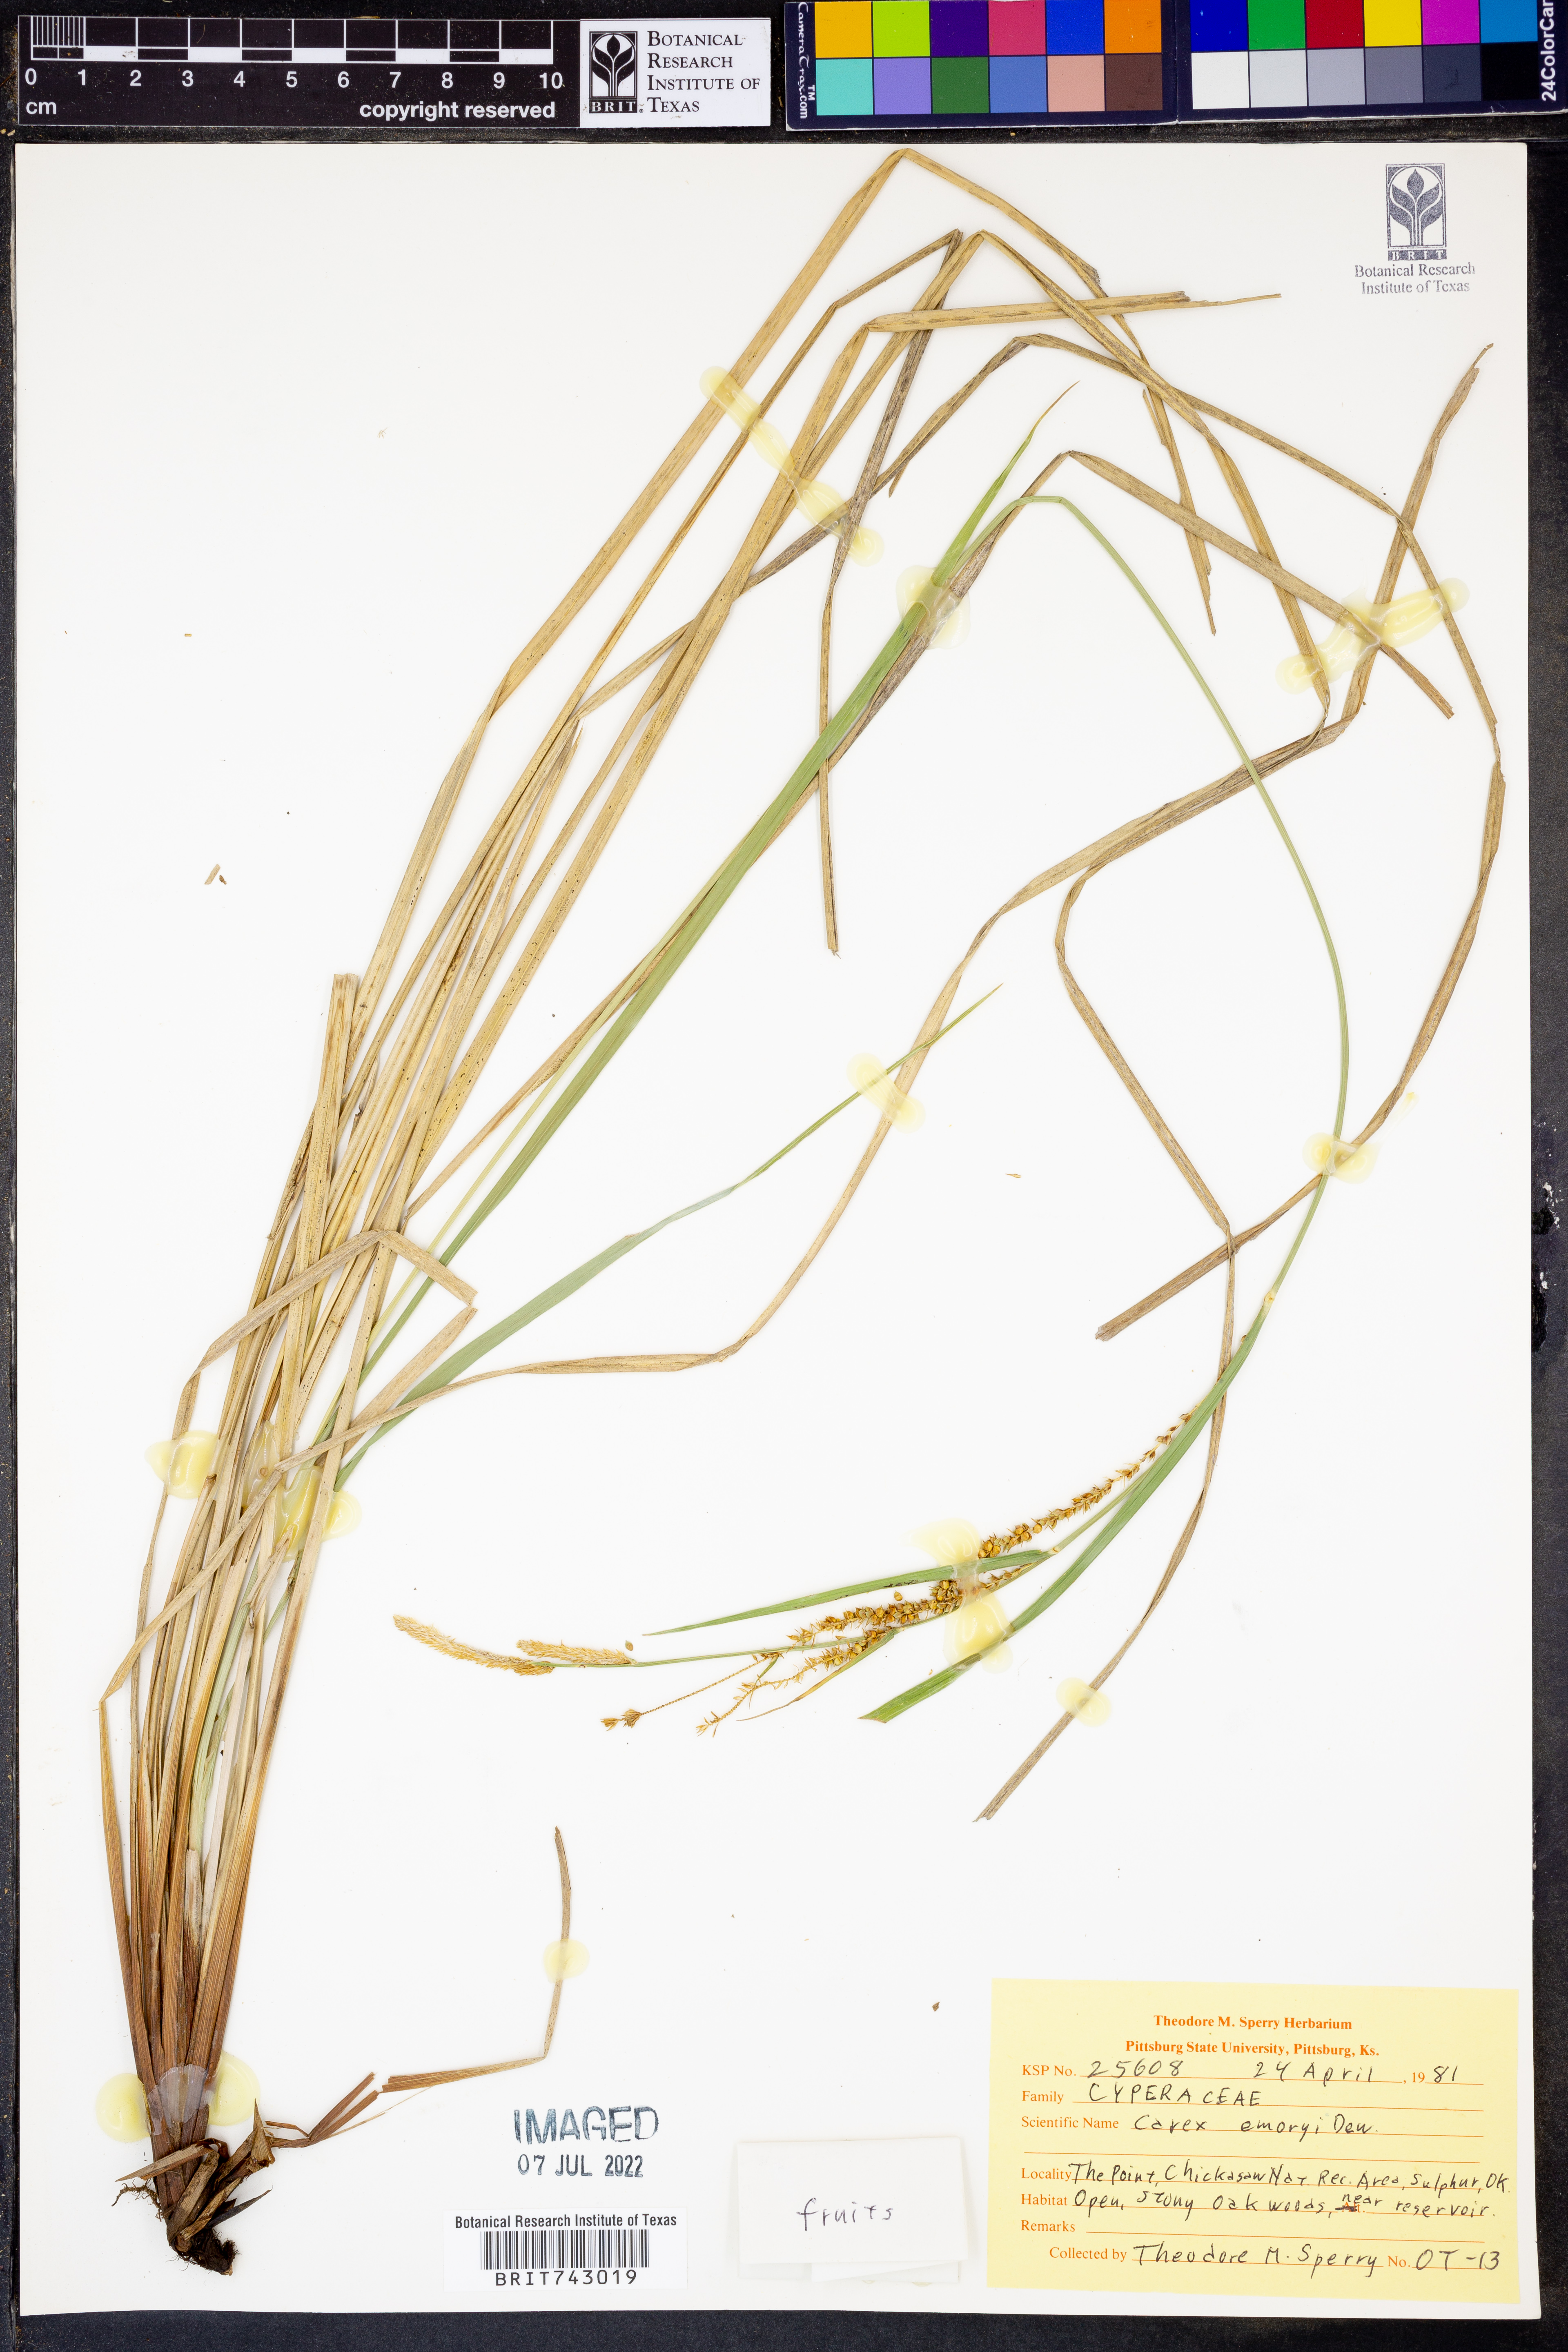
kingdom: Plantae
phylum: Tracheophyta
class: Liliopsida
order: Poales
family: Cyperaceae
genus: Carex
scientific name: Carex emoryi
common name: Emory's sedge
